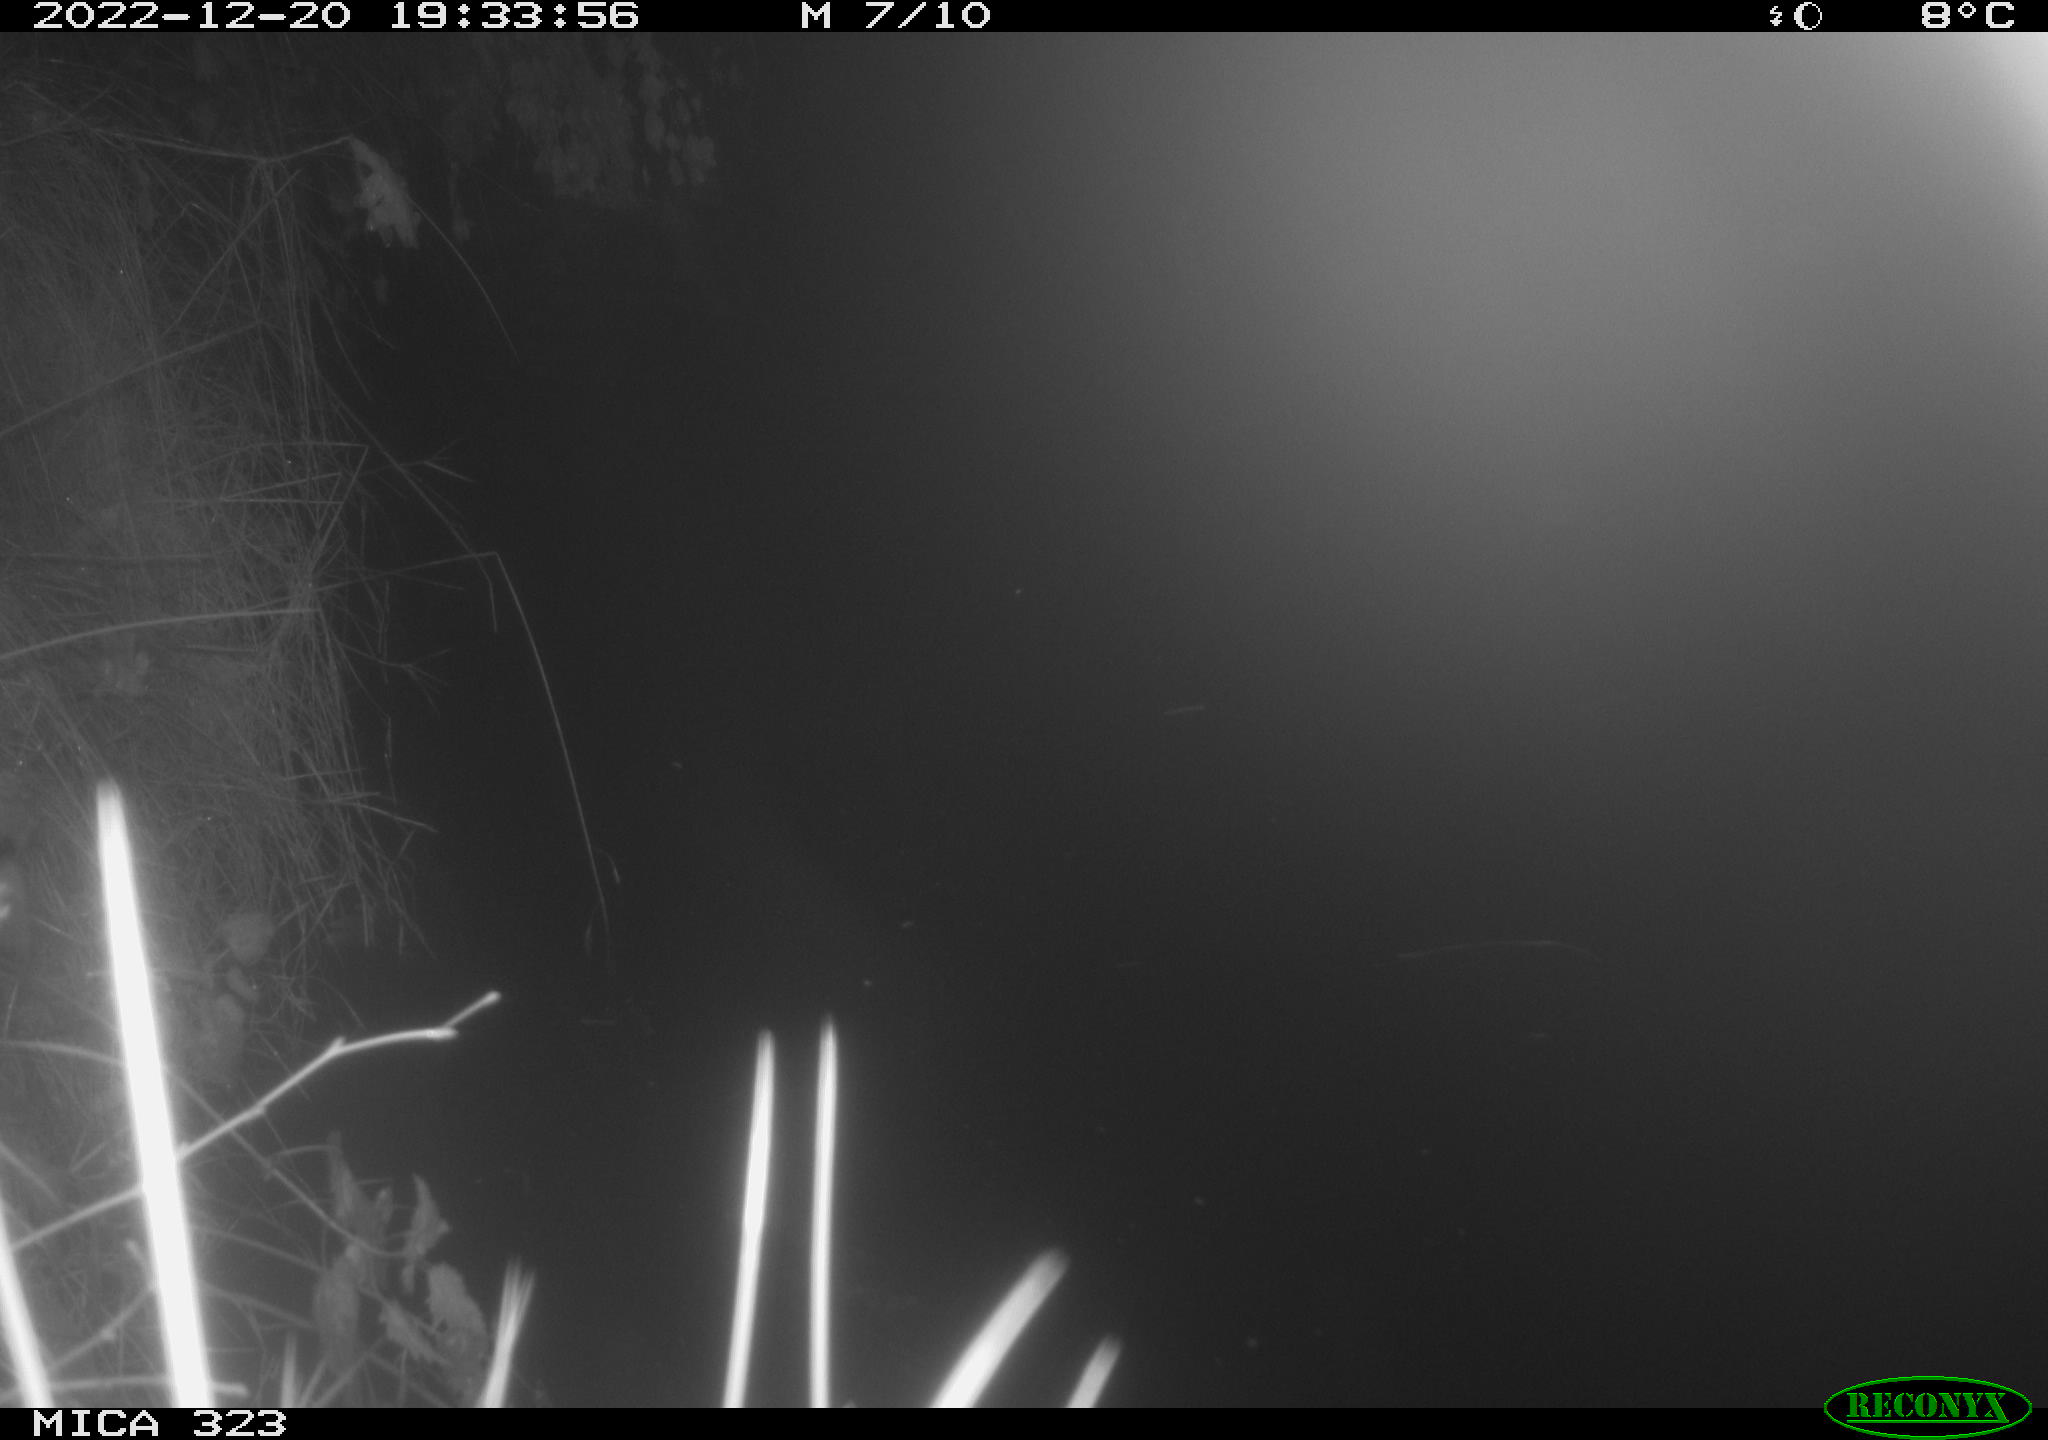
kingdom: Animalia
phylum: Chordata
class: Mammalia
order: Rodentia
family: Cricetidae
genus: Ondatra
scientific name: Ondatra zibethicus
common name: Muskrat
